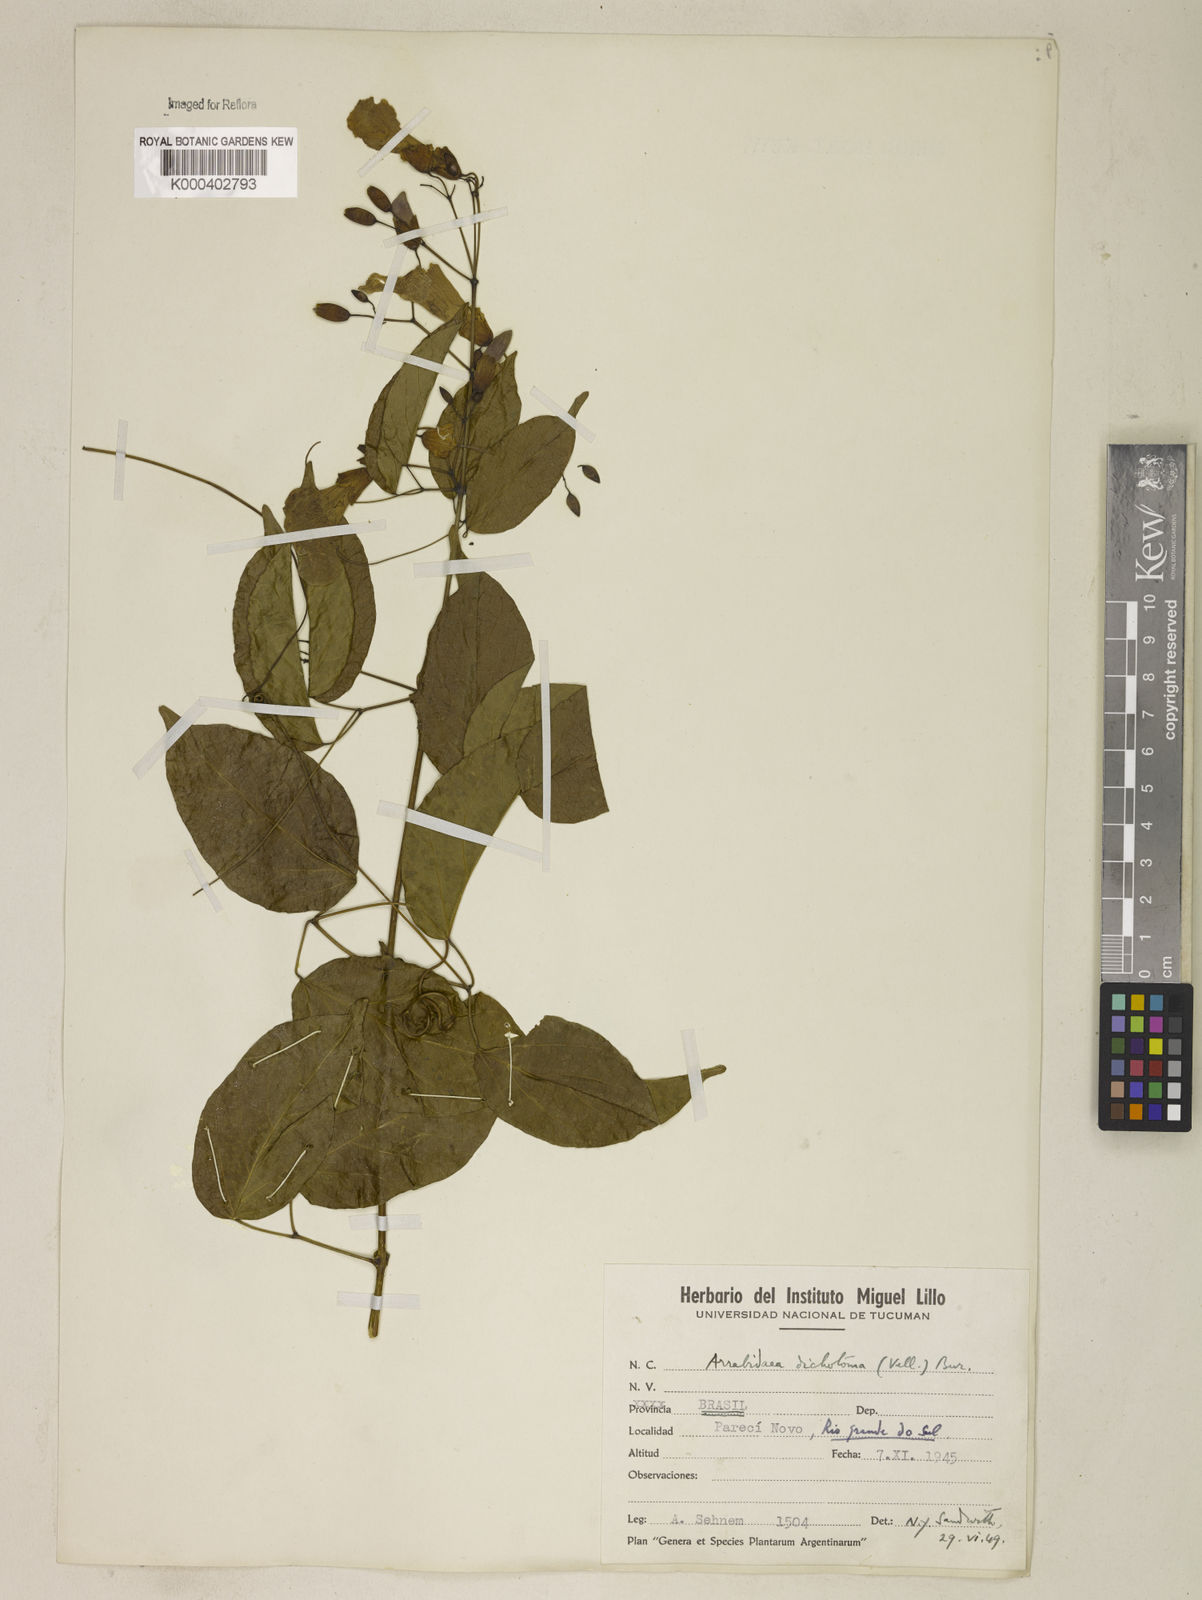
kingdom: Plantae
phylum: Tracheophyta
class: Magnoliopsida
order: Lamiales
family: Bignoniaceae
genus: Tanaecium
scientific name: Tanaecium selloi
